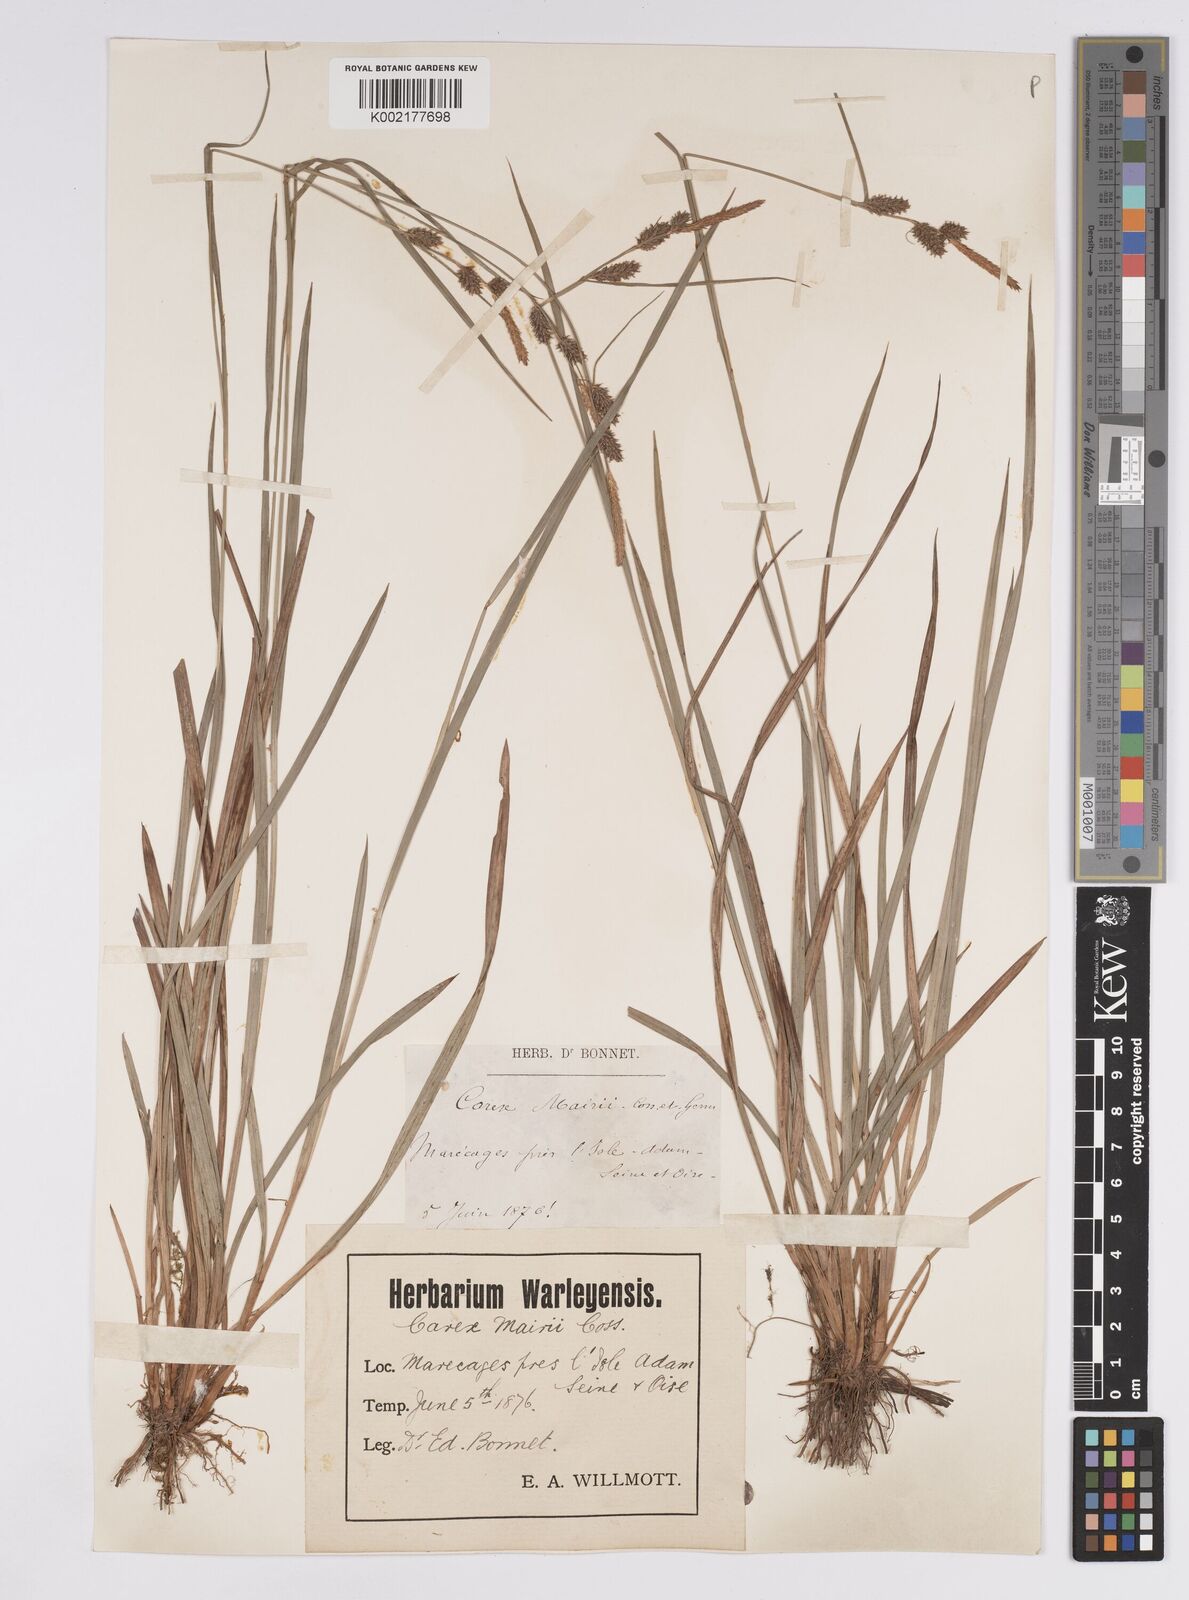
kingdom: Plantae
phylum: Tracheophyta
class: Liliopsida
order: Poales
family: Cyperaceae
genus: Carex
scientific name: Carex mairei
